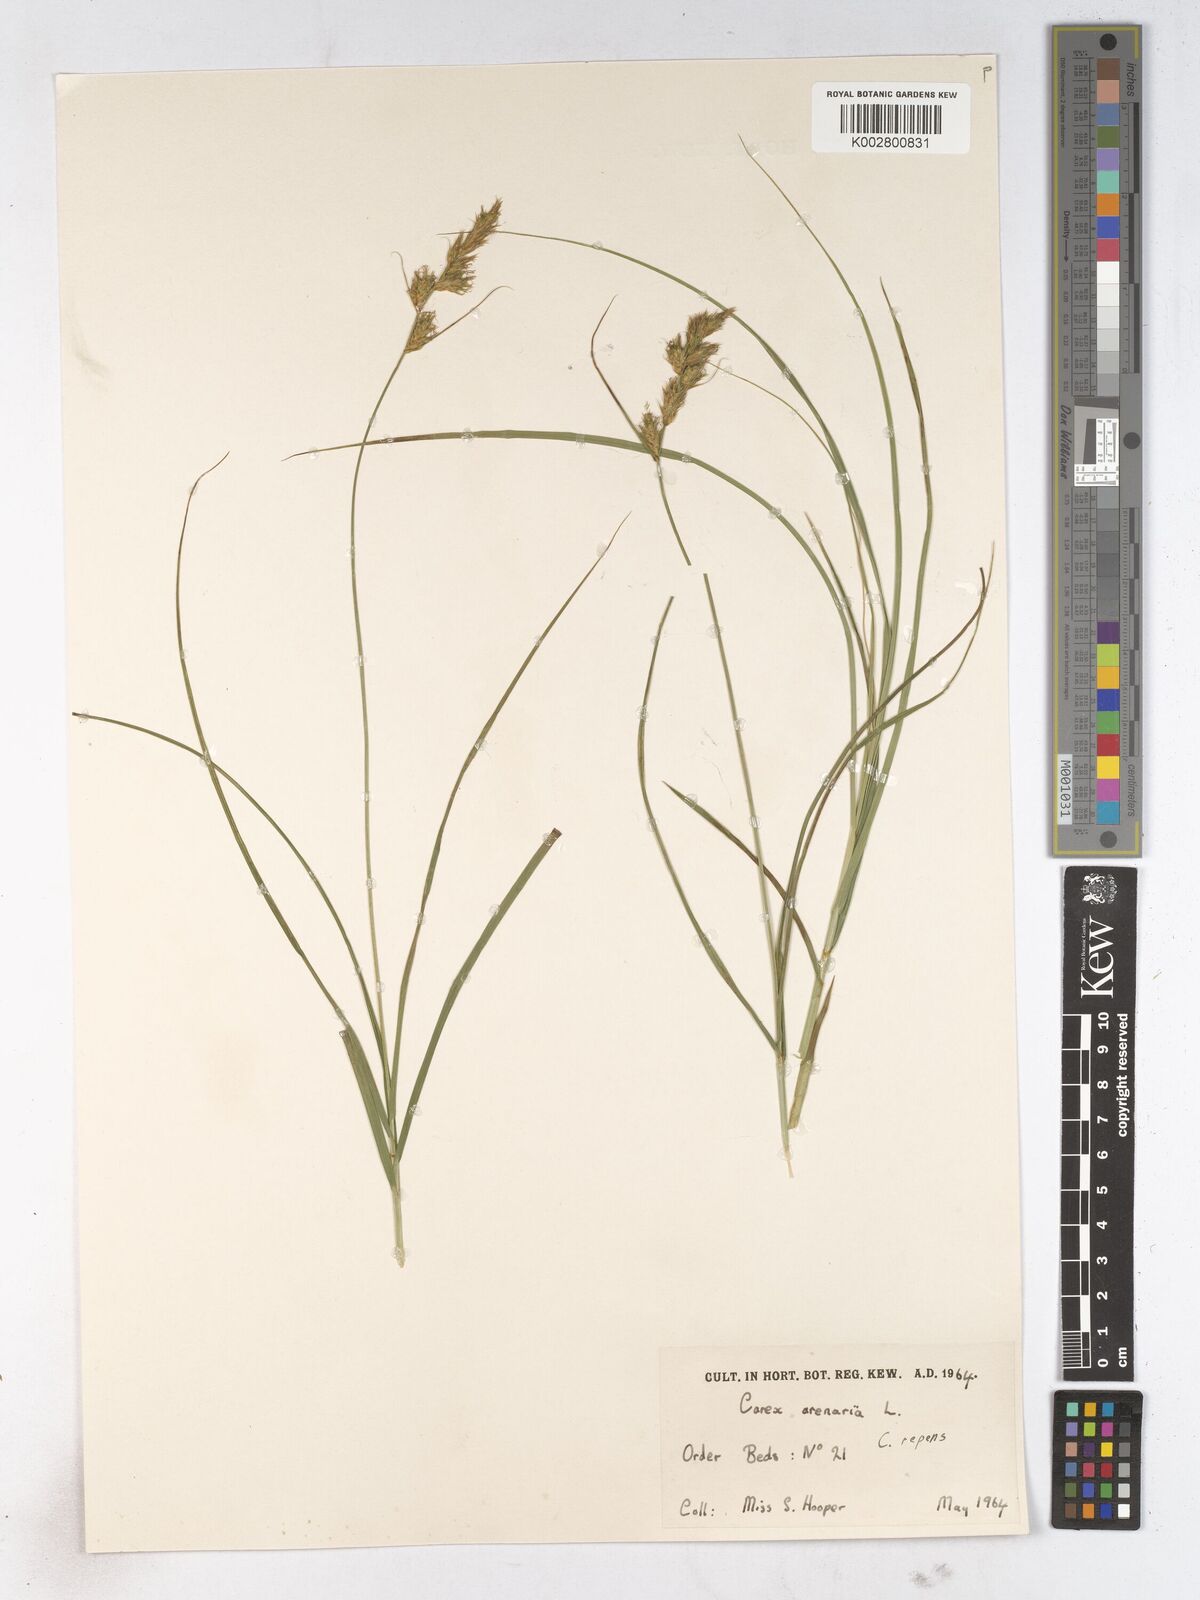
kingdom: Plantae
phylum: Tracheophyta
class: Liliopsida
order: Poales
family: Cyperaceae
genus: Carex
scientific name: Carex arctata
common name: Black sedge
